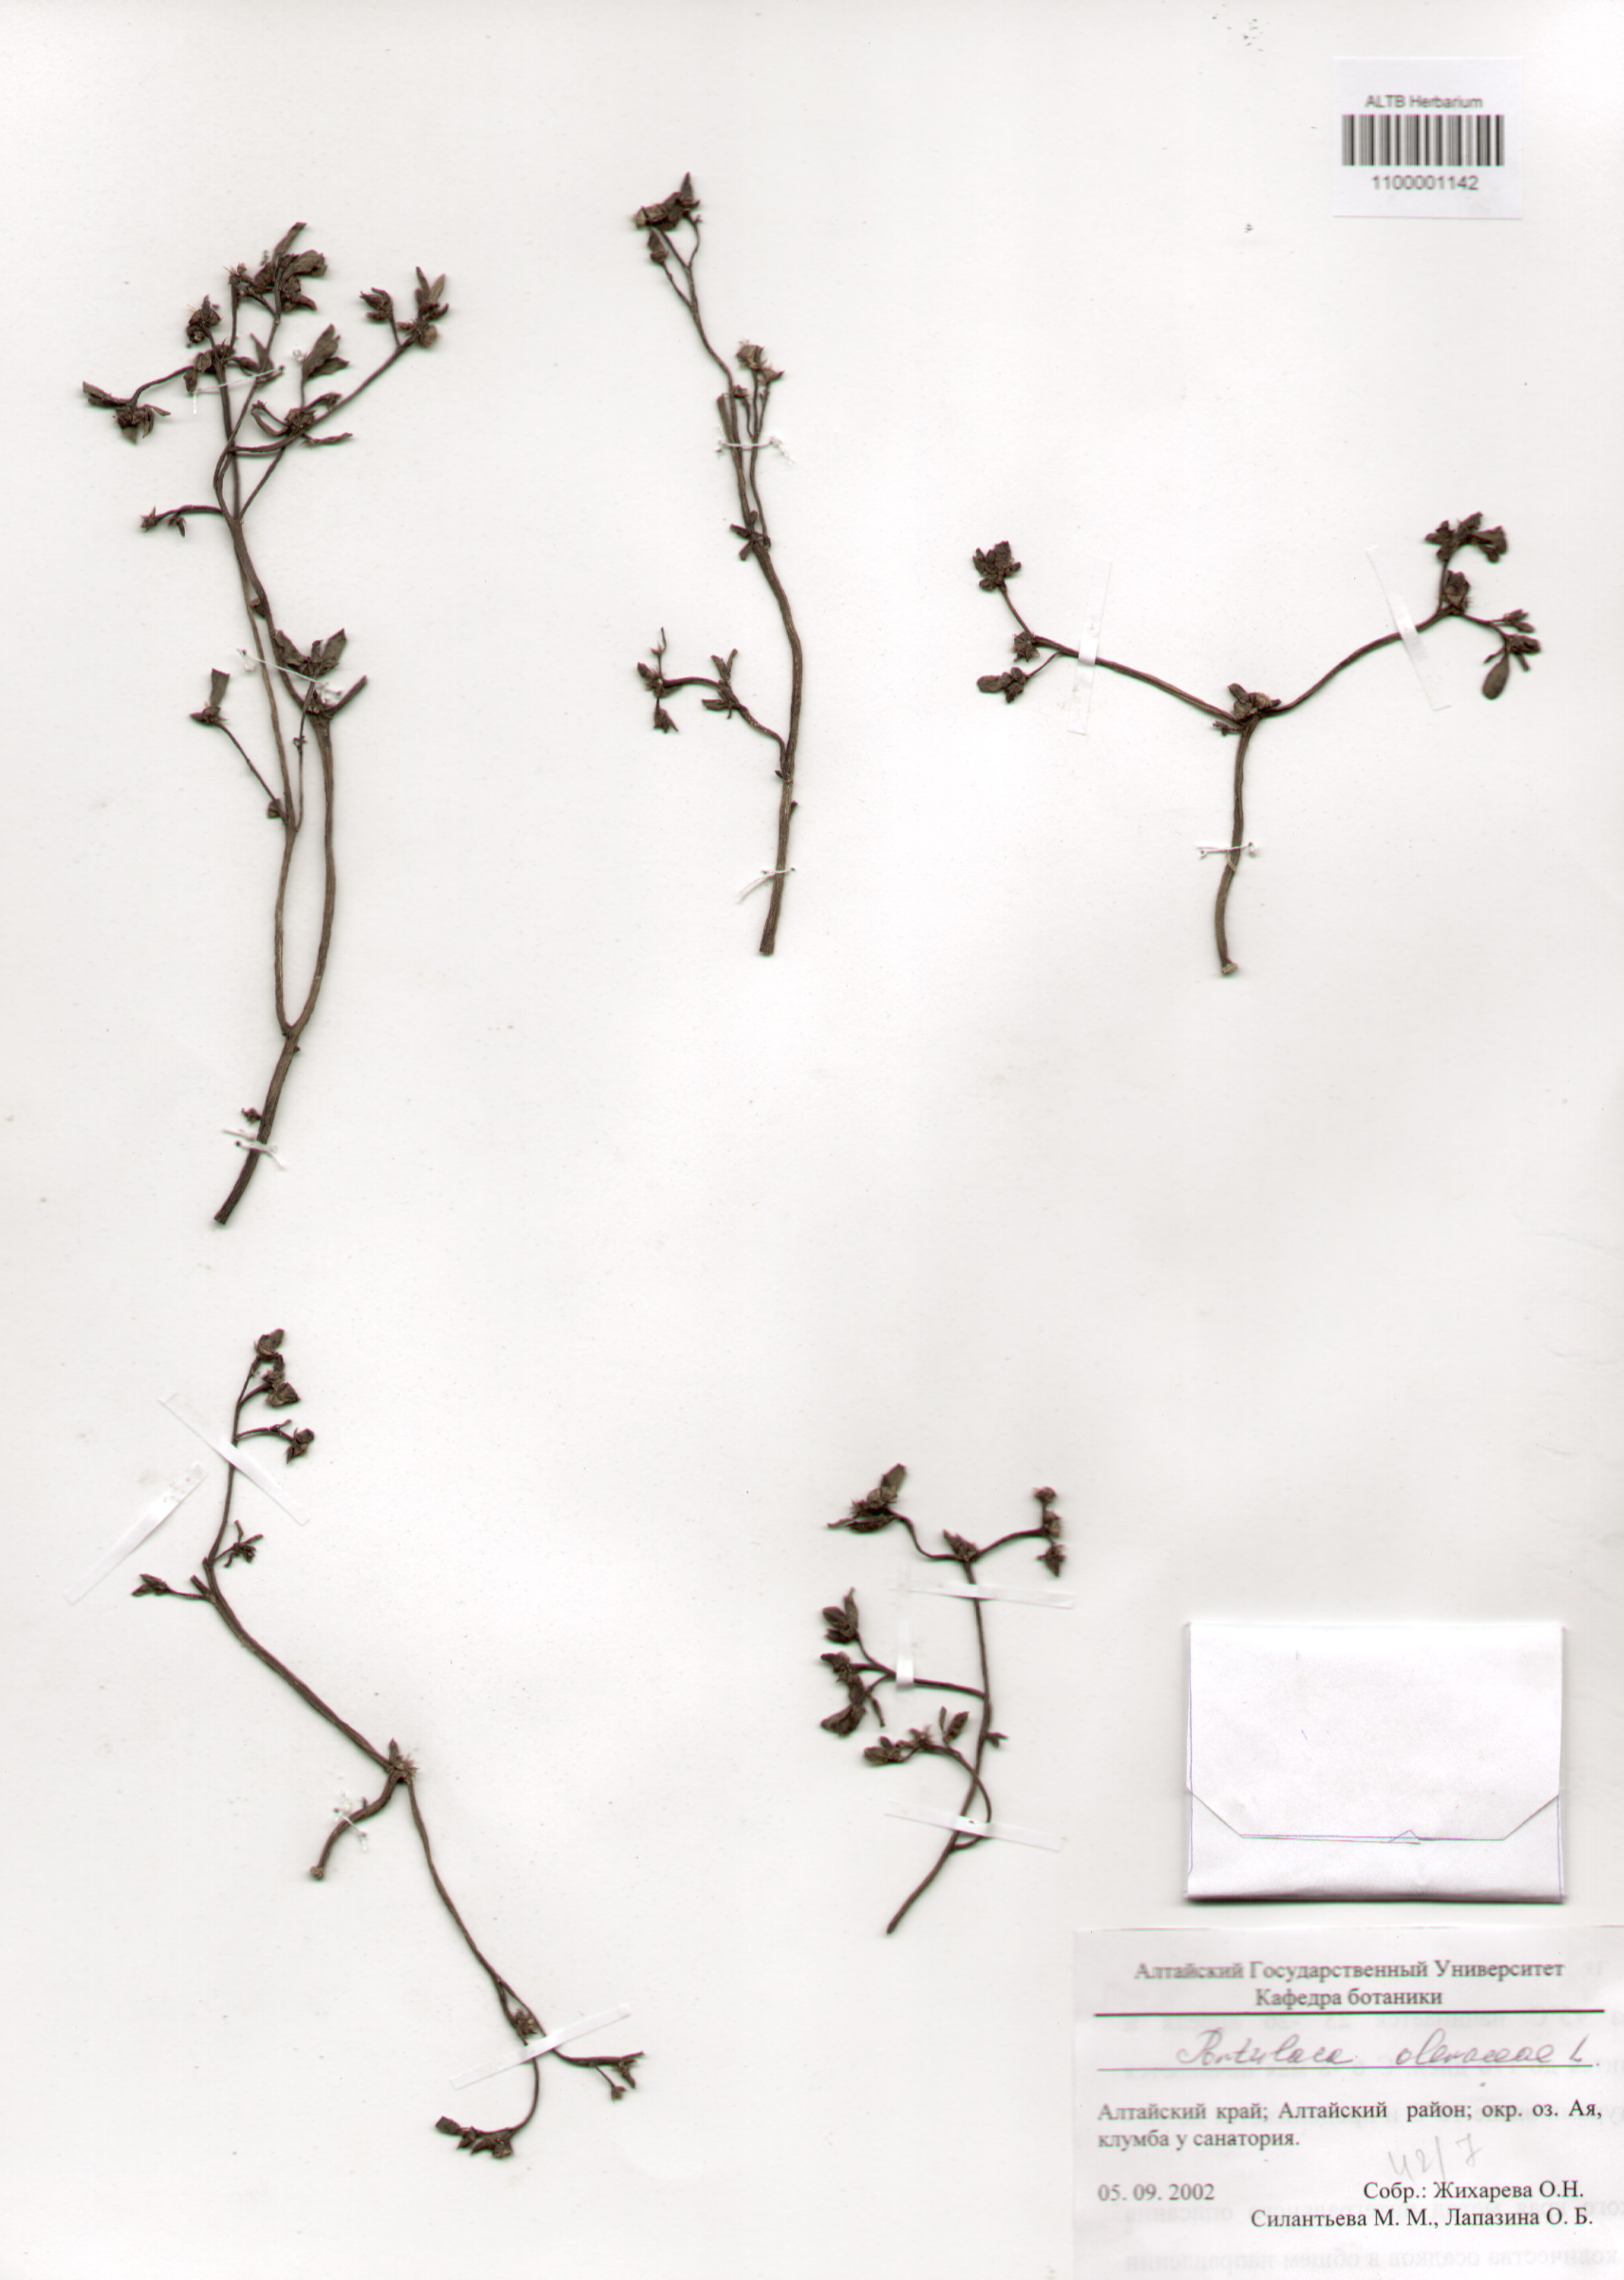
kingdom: Plantae
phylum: Tracheophyta
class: Magnoliopsida
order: Caryophyllales
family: Portulacaceae
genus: Portulaca
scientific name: Portulaca oleracea
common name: Common purslane
